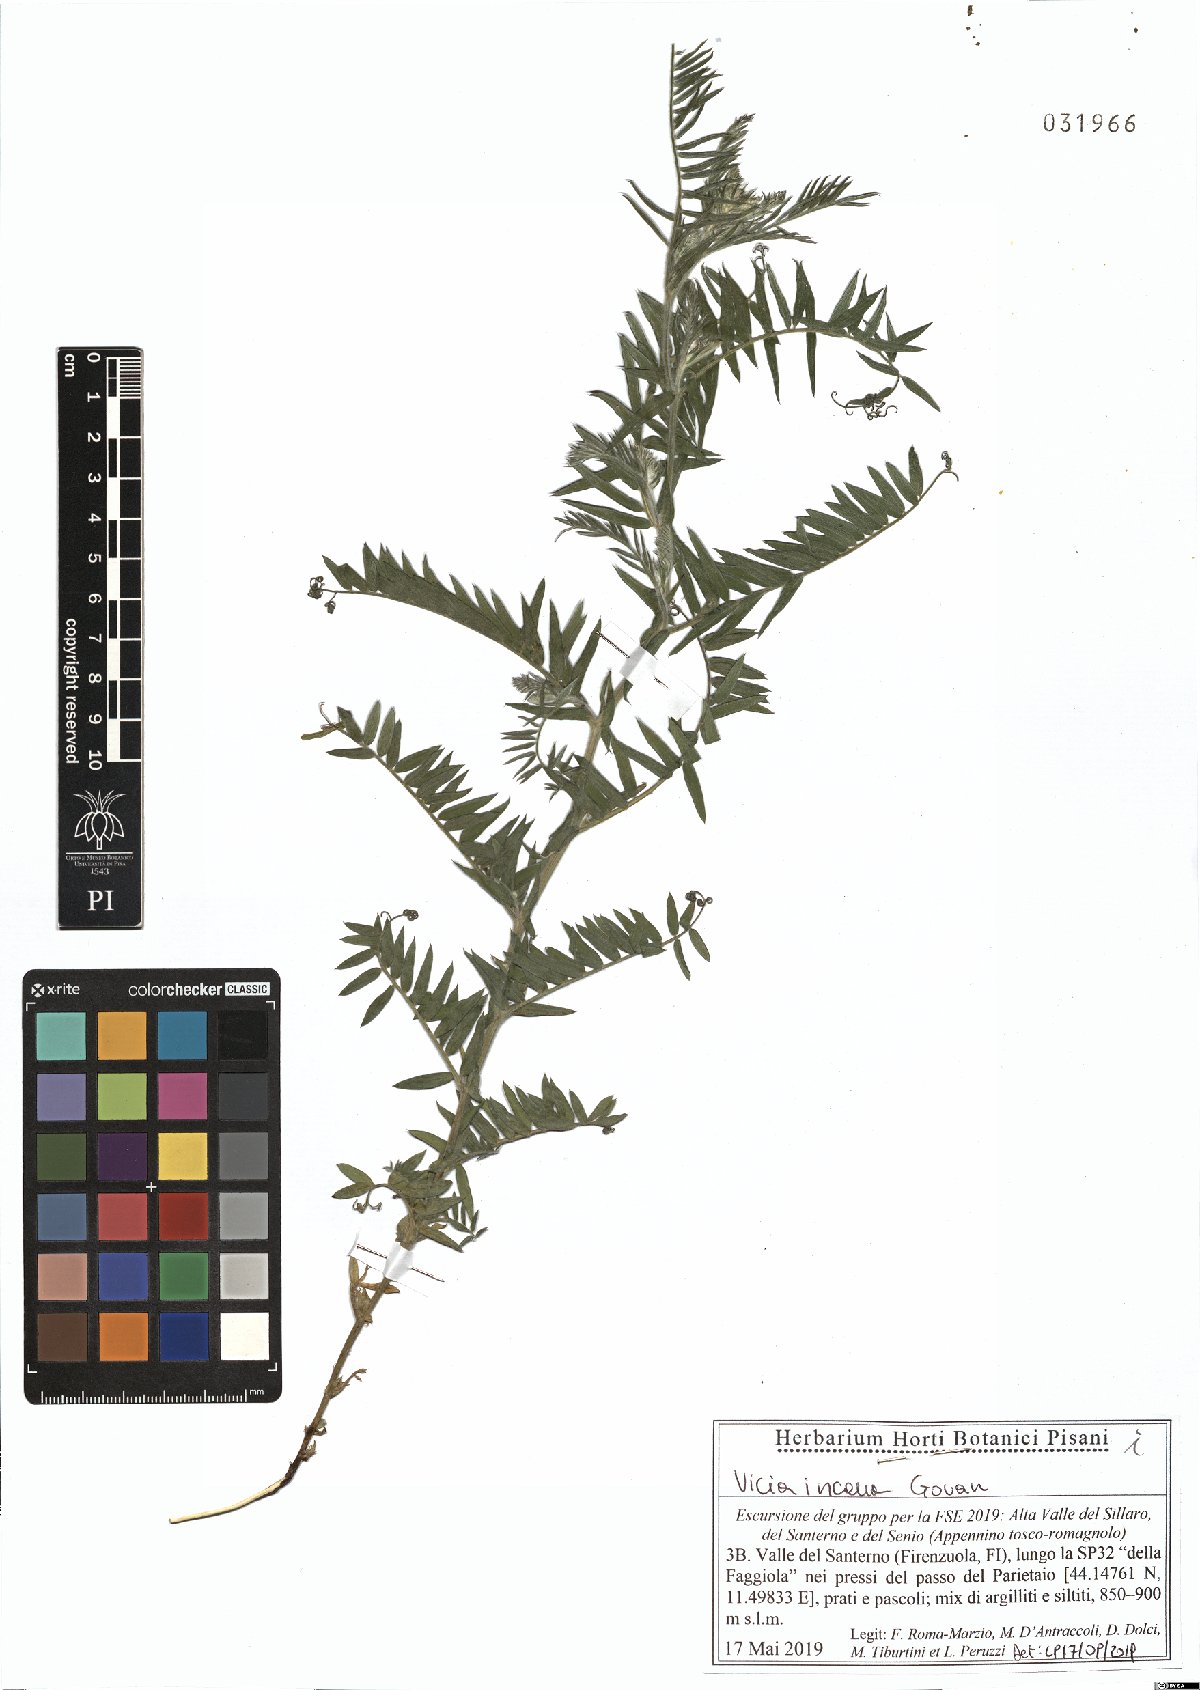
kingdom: Plantae
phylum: Tracheophyta
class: Magnoliopsida
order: Fabales
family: Fabaceae
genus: Vicia
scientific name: Vicia incana
